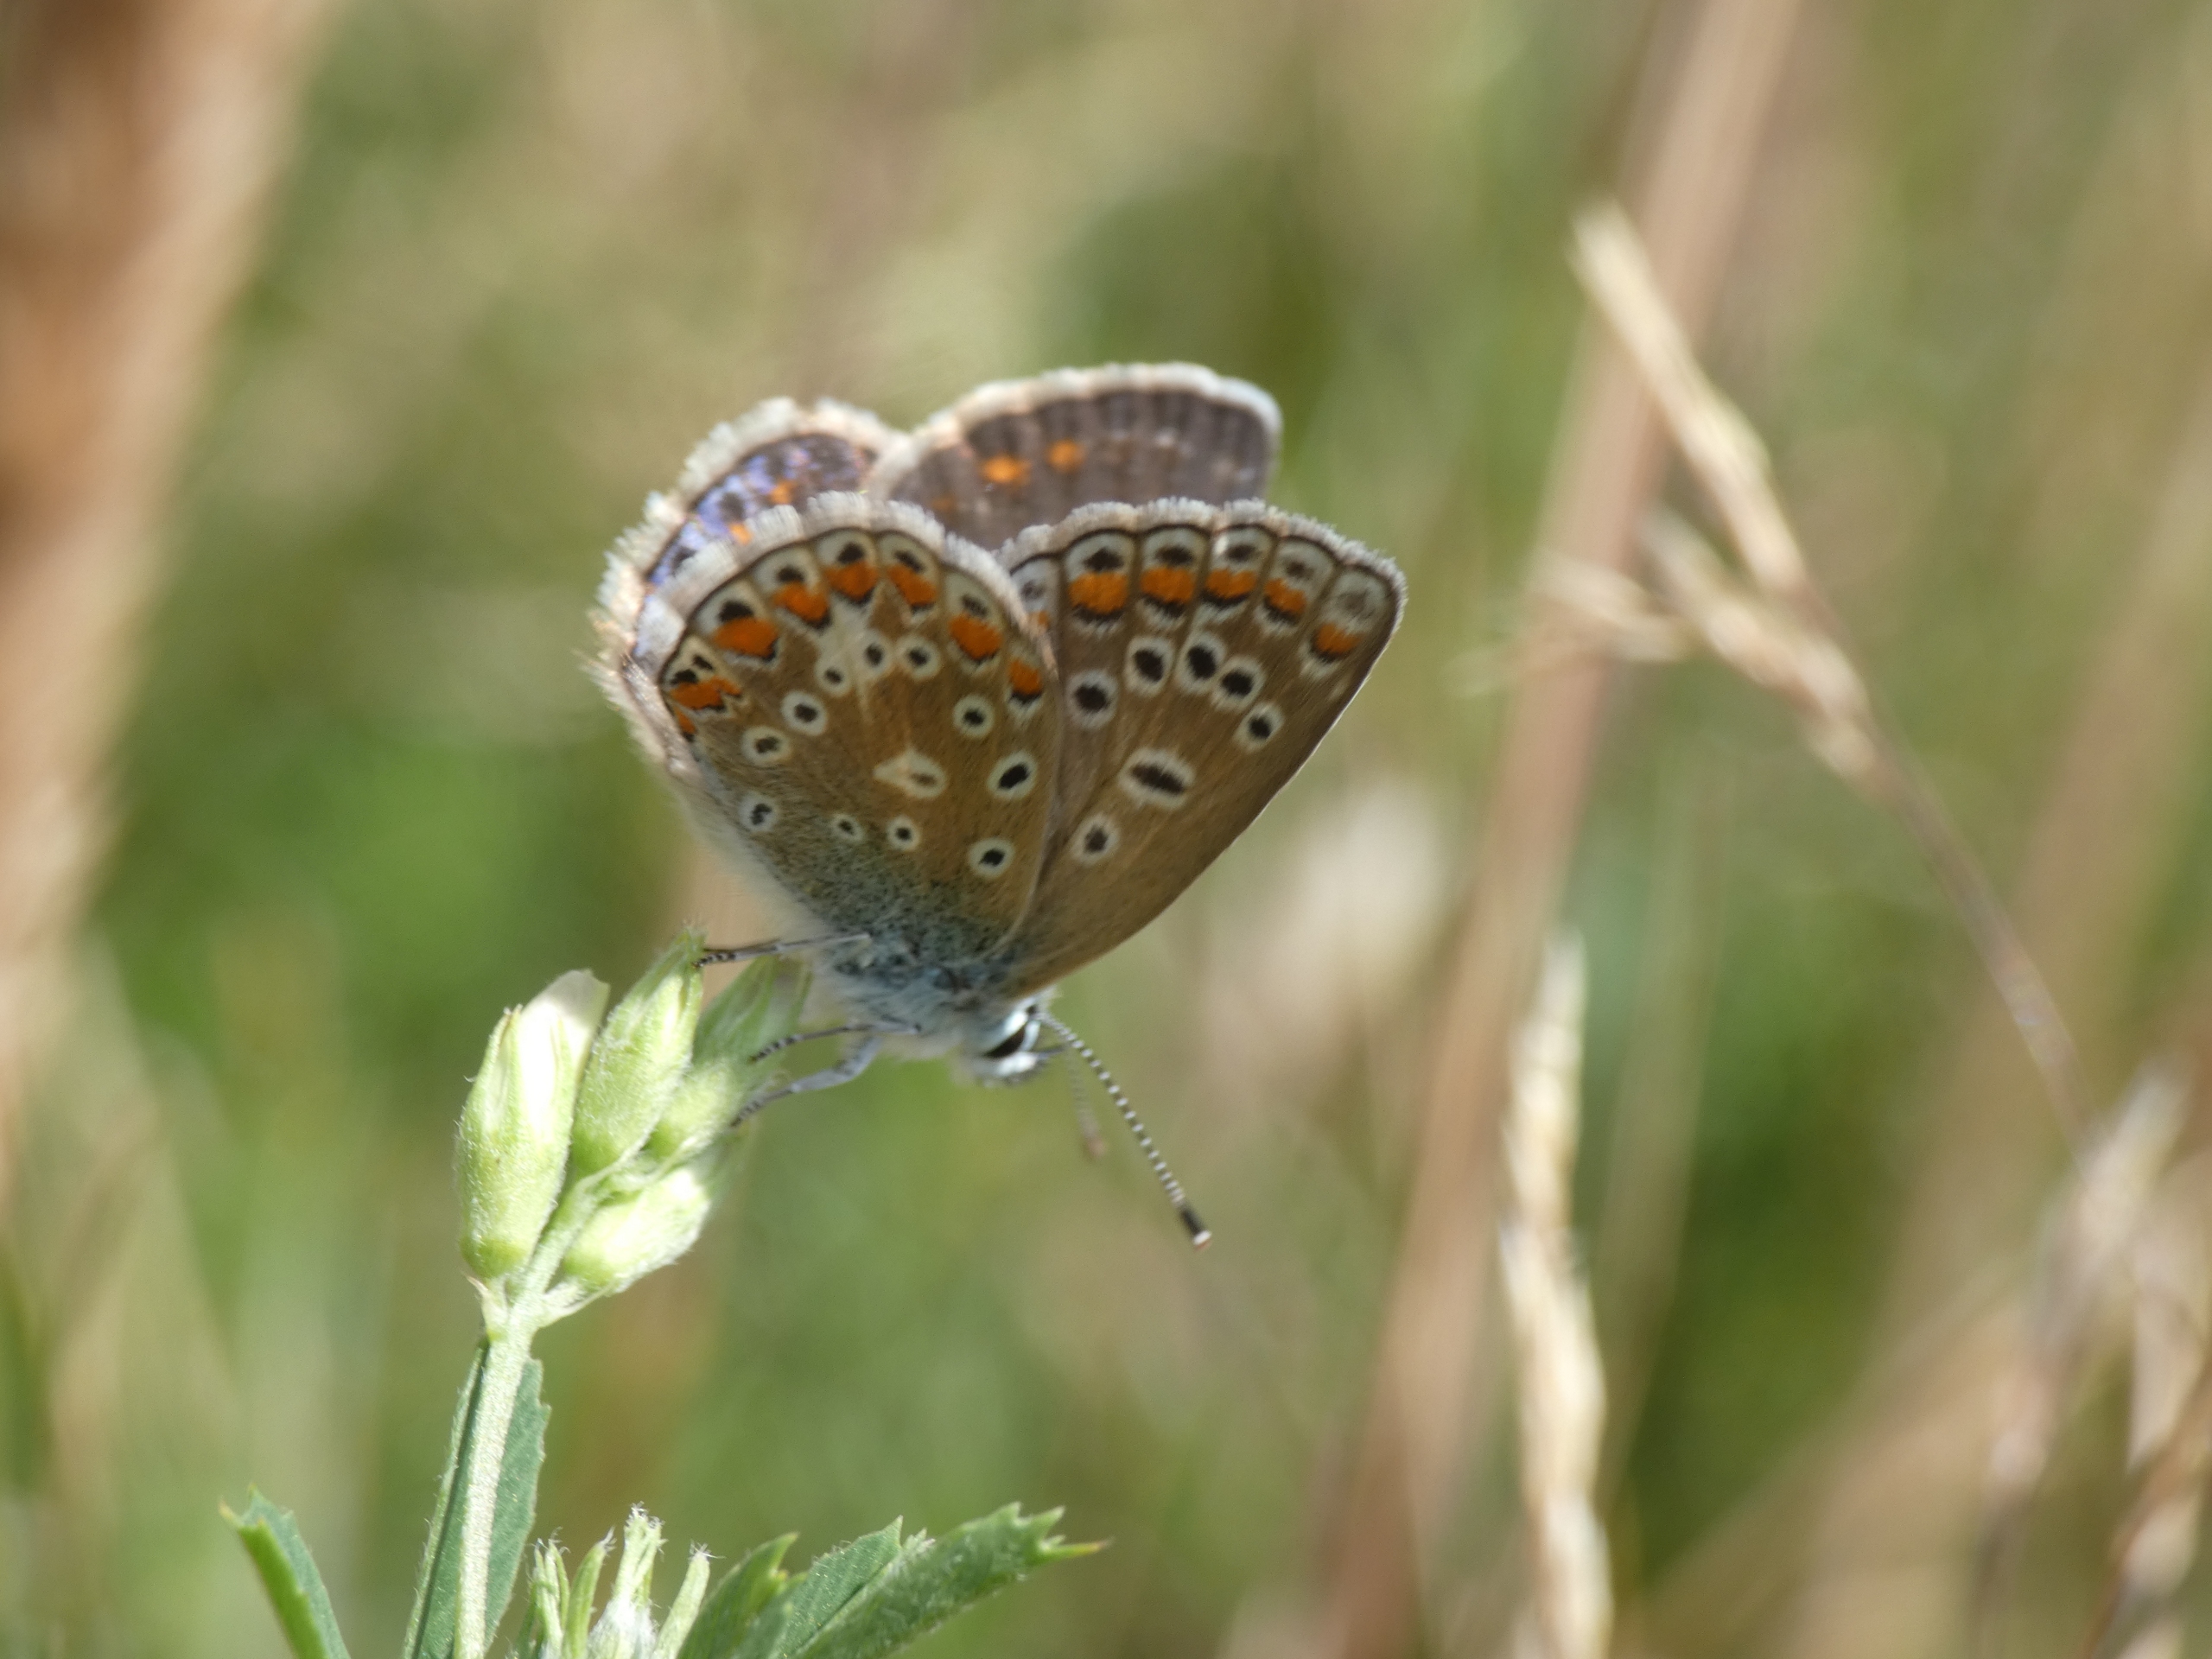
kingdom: Animalia
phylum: Arthropoda
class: Insecta
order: Lepidoptera
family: Lycaenidae
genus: Polyommatus
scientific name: Polyommatus icarus
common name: Almindelig blåfugl
